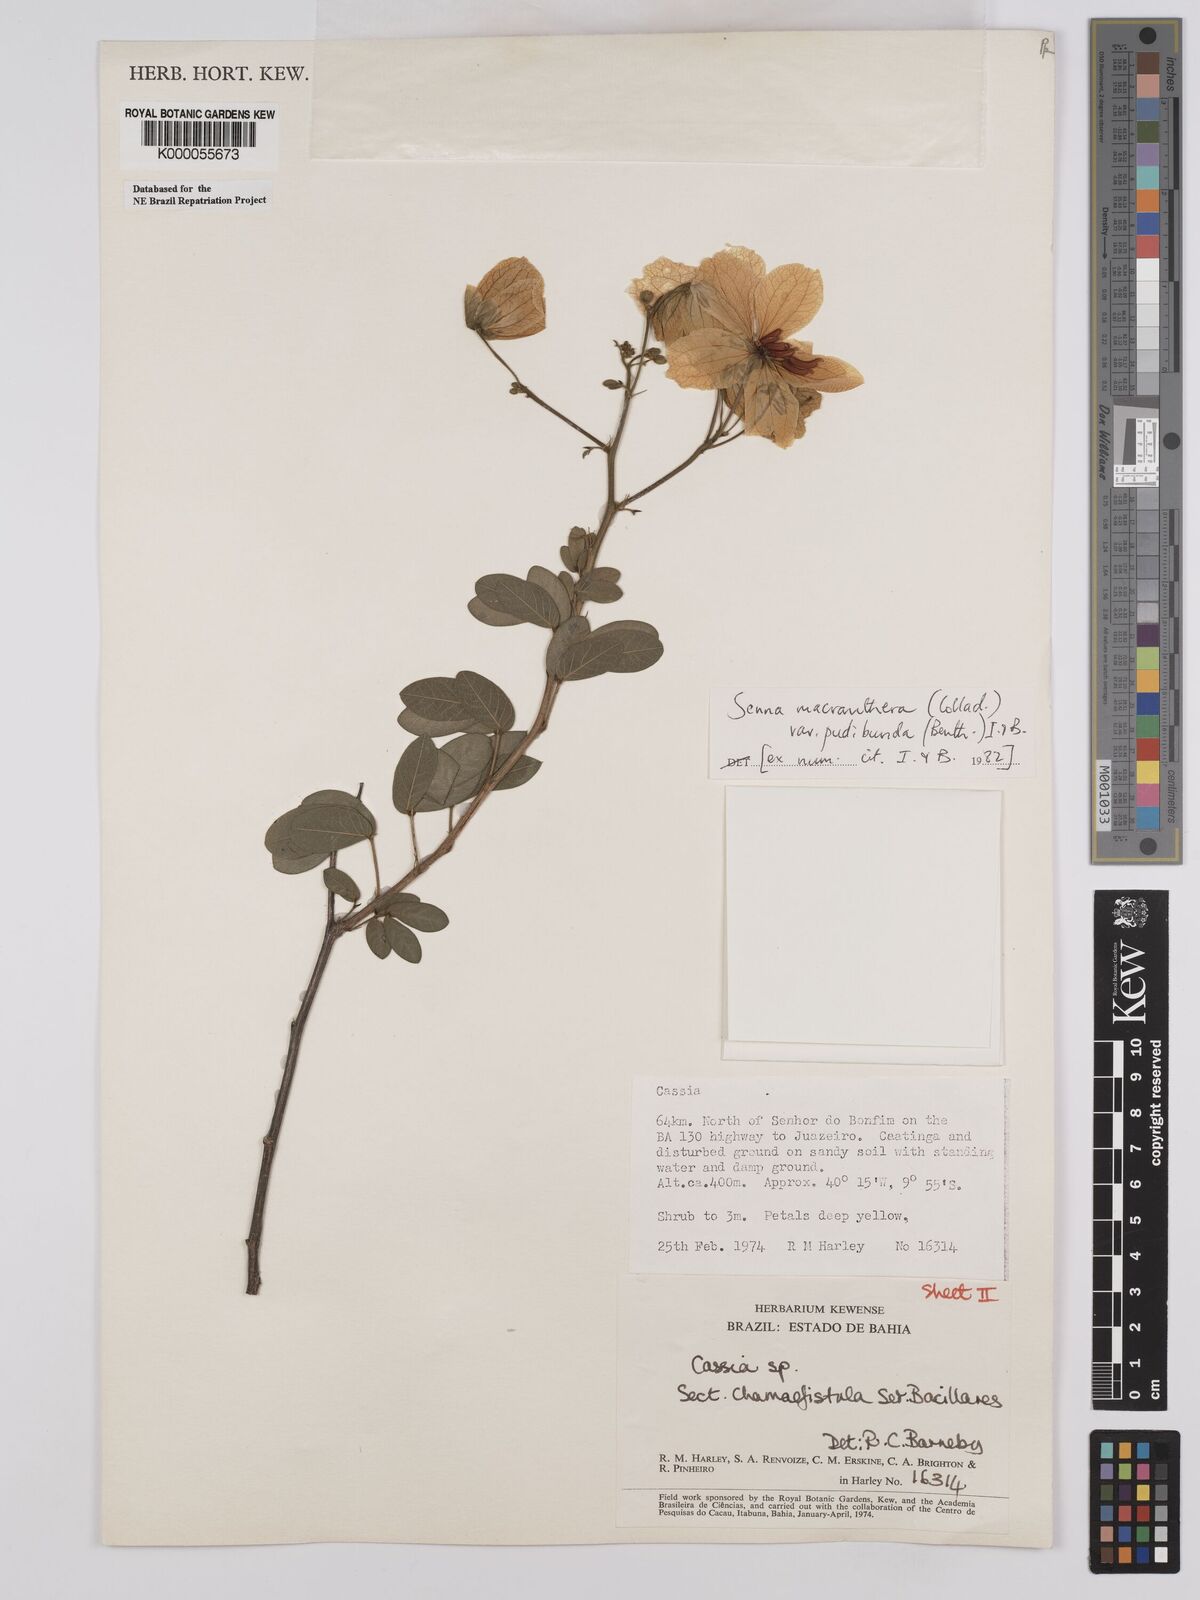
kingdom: Plantae
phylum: Tracheophyta
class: Magnoliopsida
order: Fabales
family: Fabaceae
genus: Senna
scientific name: Senna macranthera
